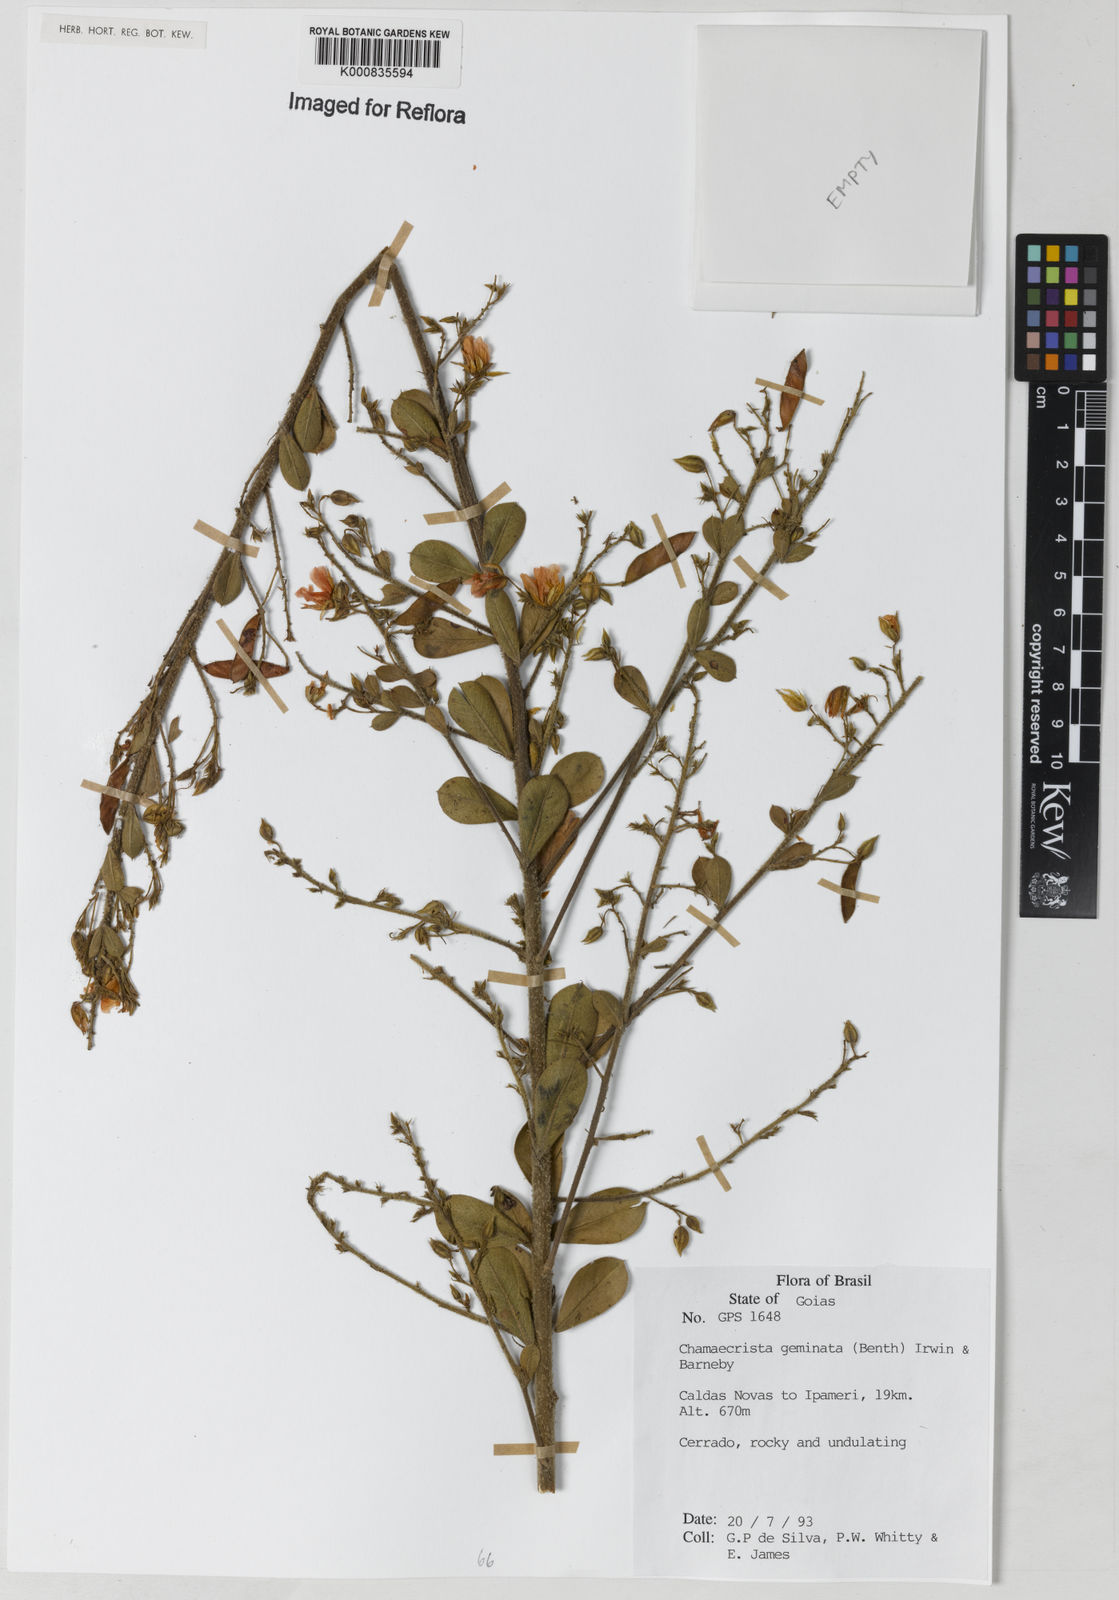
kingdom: Plantae
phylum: Tracheophyta
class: Magnoliopsida
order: Fabales
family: Fabaceae
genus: Chamaecrista
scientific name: Chamaecrista geminata
